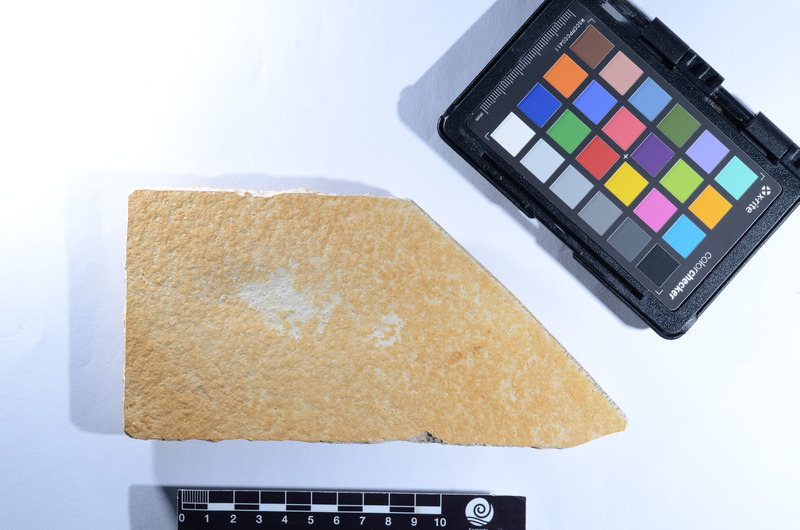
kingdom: Animalia
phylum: Chordata
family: Ophiopsiellidae
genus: Ophiopsiella
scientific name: Ophiopsiella attenuata
